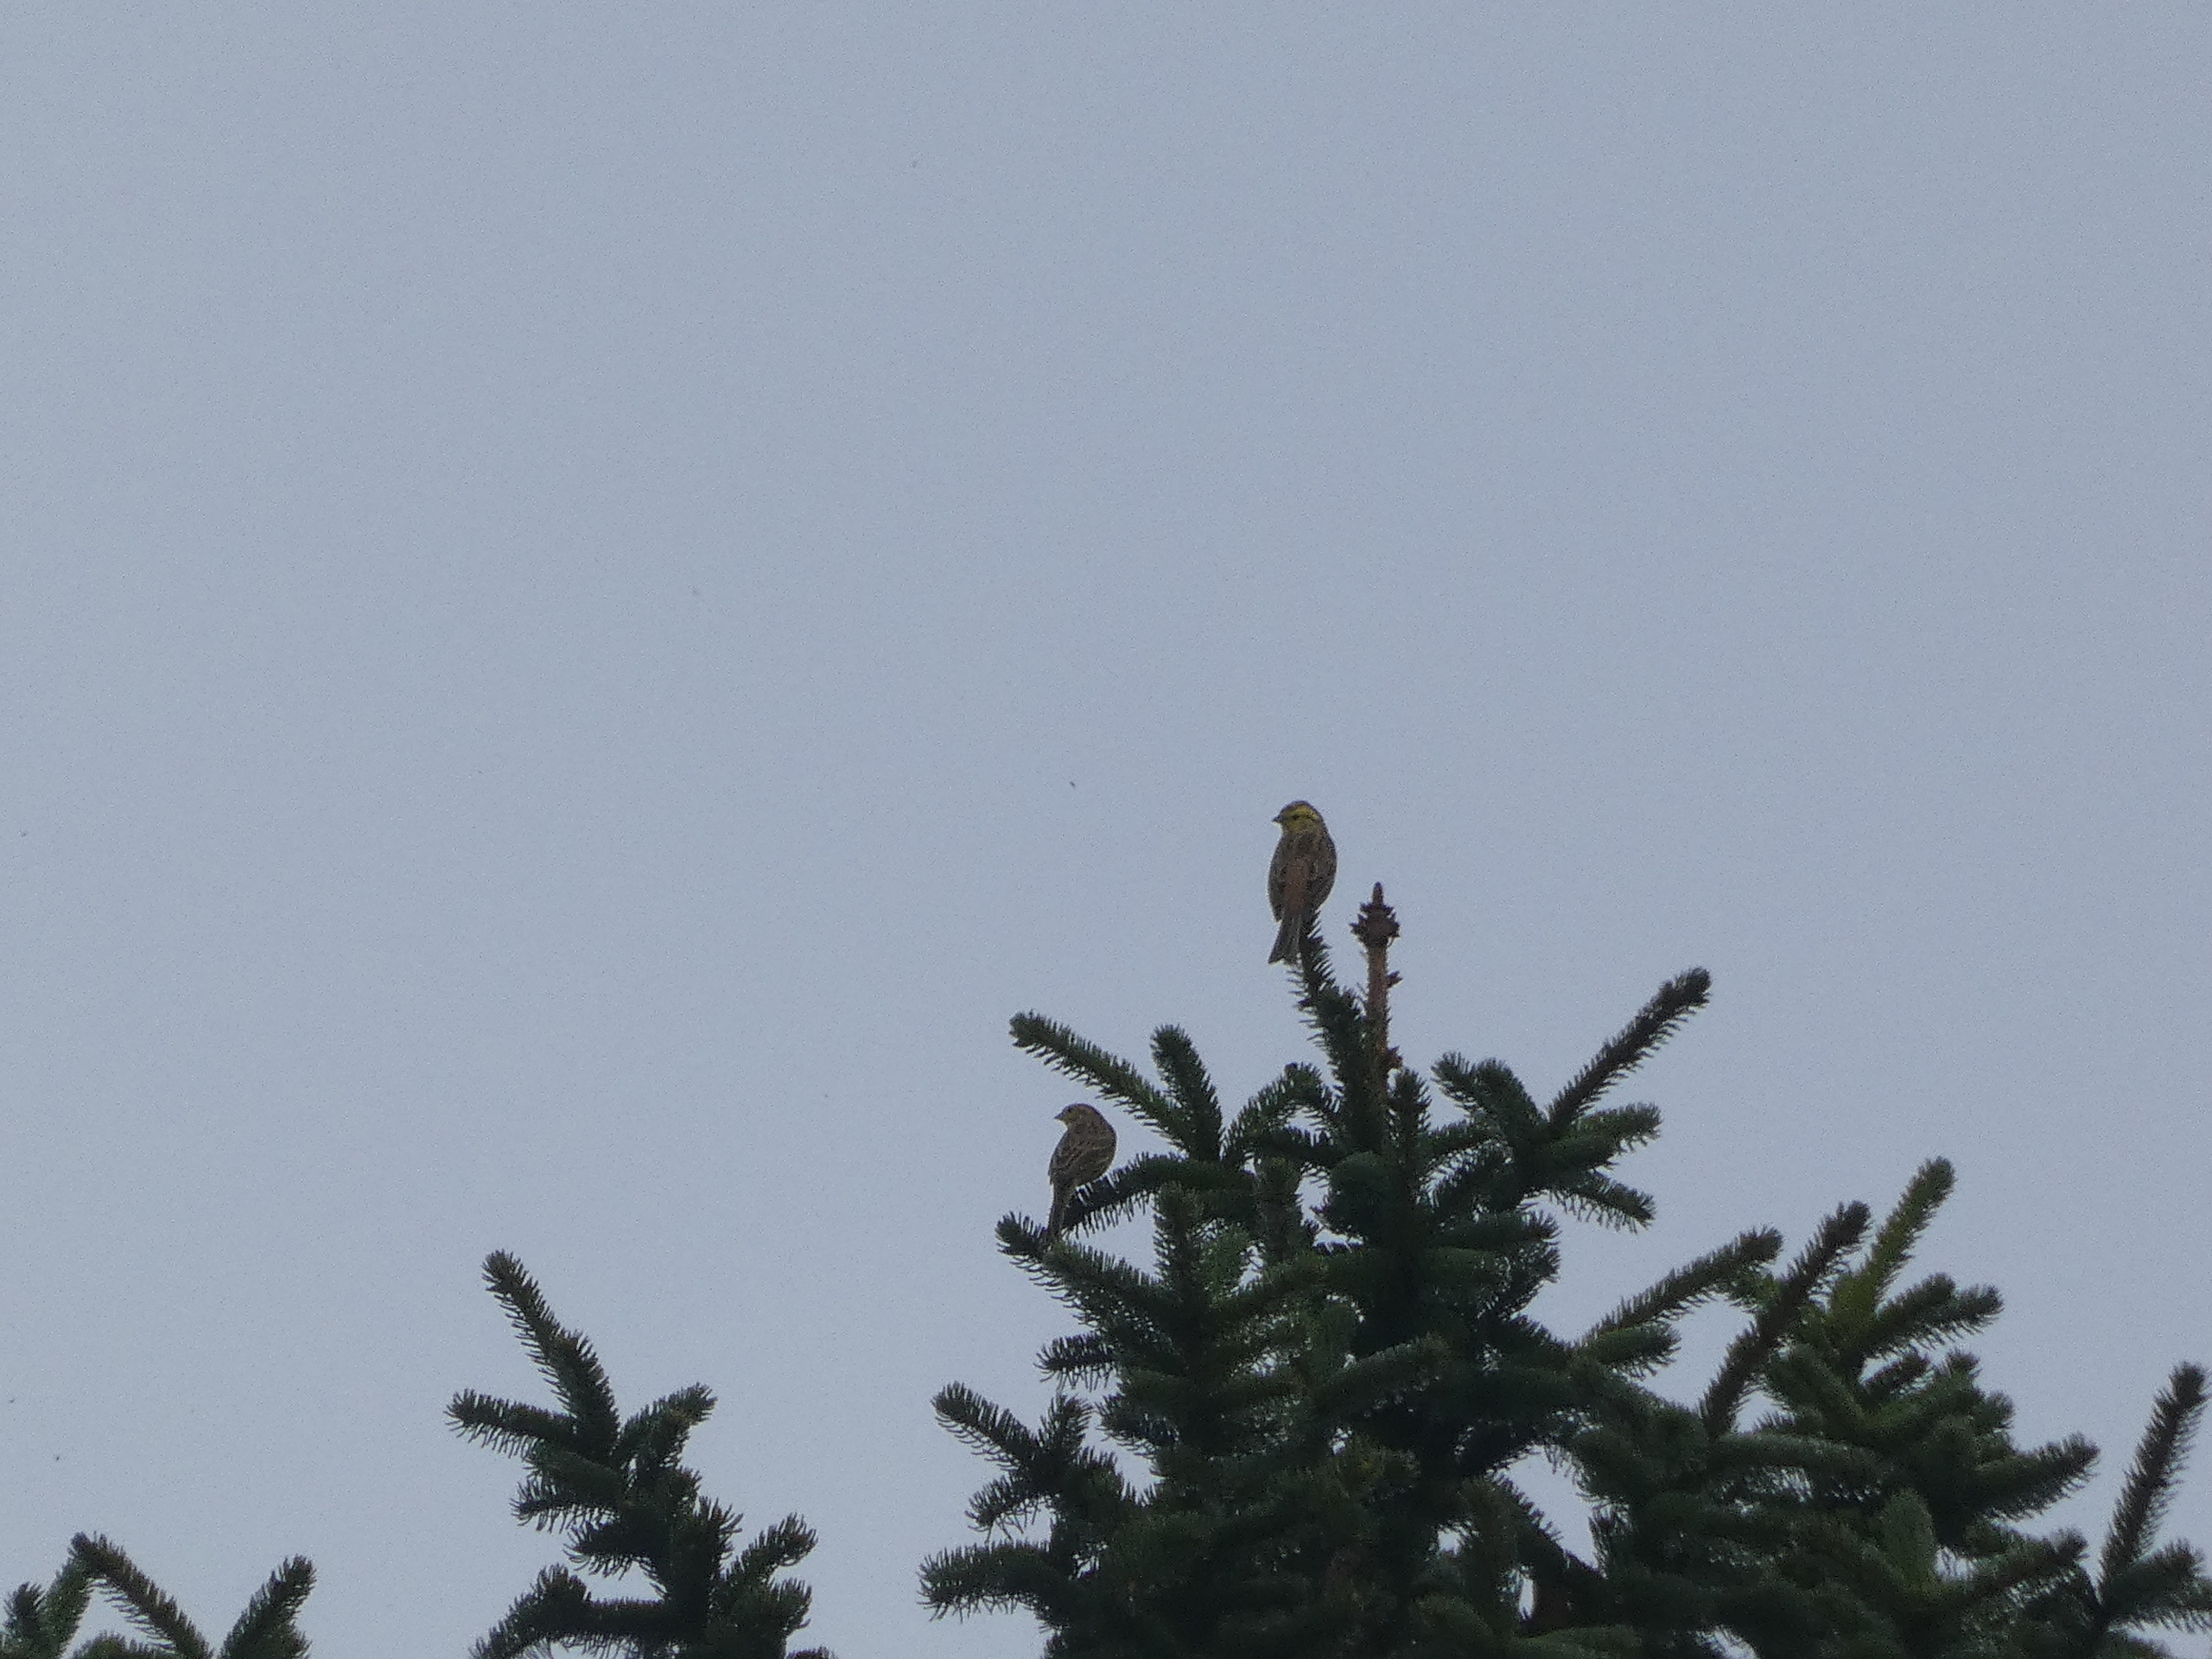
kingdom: Animalia
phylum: Chordata
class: Aves
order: Passeriformes
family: Emberizidae
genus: Emberiza
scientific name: Emberiza citrinella
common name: Gulspurv
